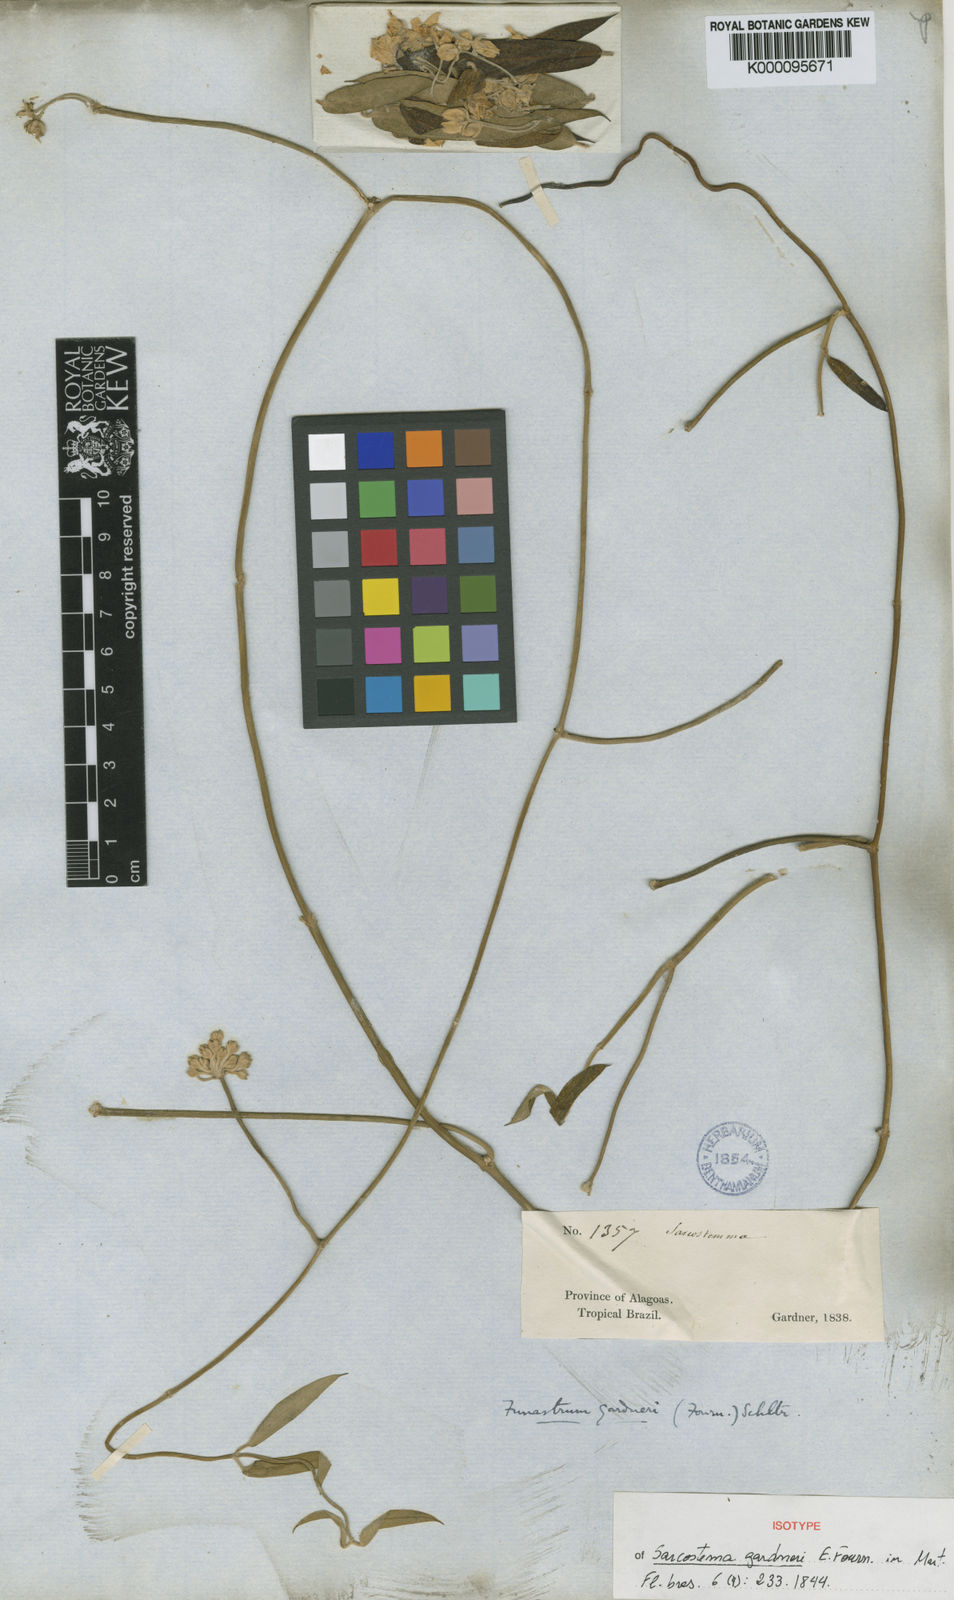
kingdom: Plantae
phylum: Tracheophyta
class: Magnoliopsida
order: Gentianales
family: Apocynaceae
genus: Funastrum
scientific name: Funastrum clausum
